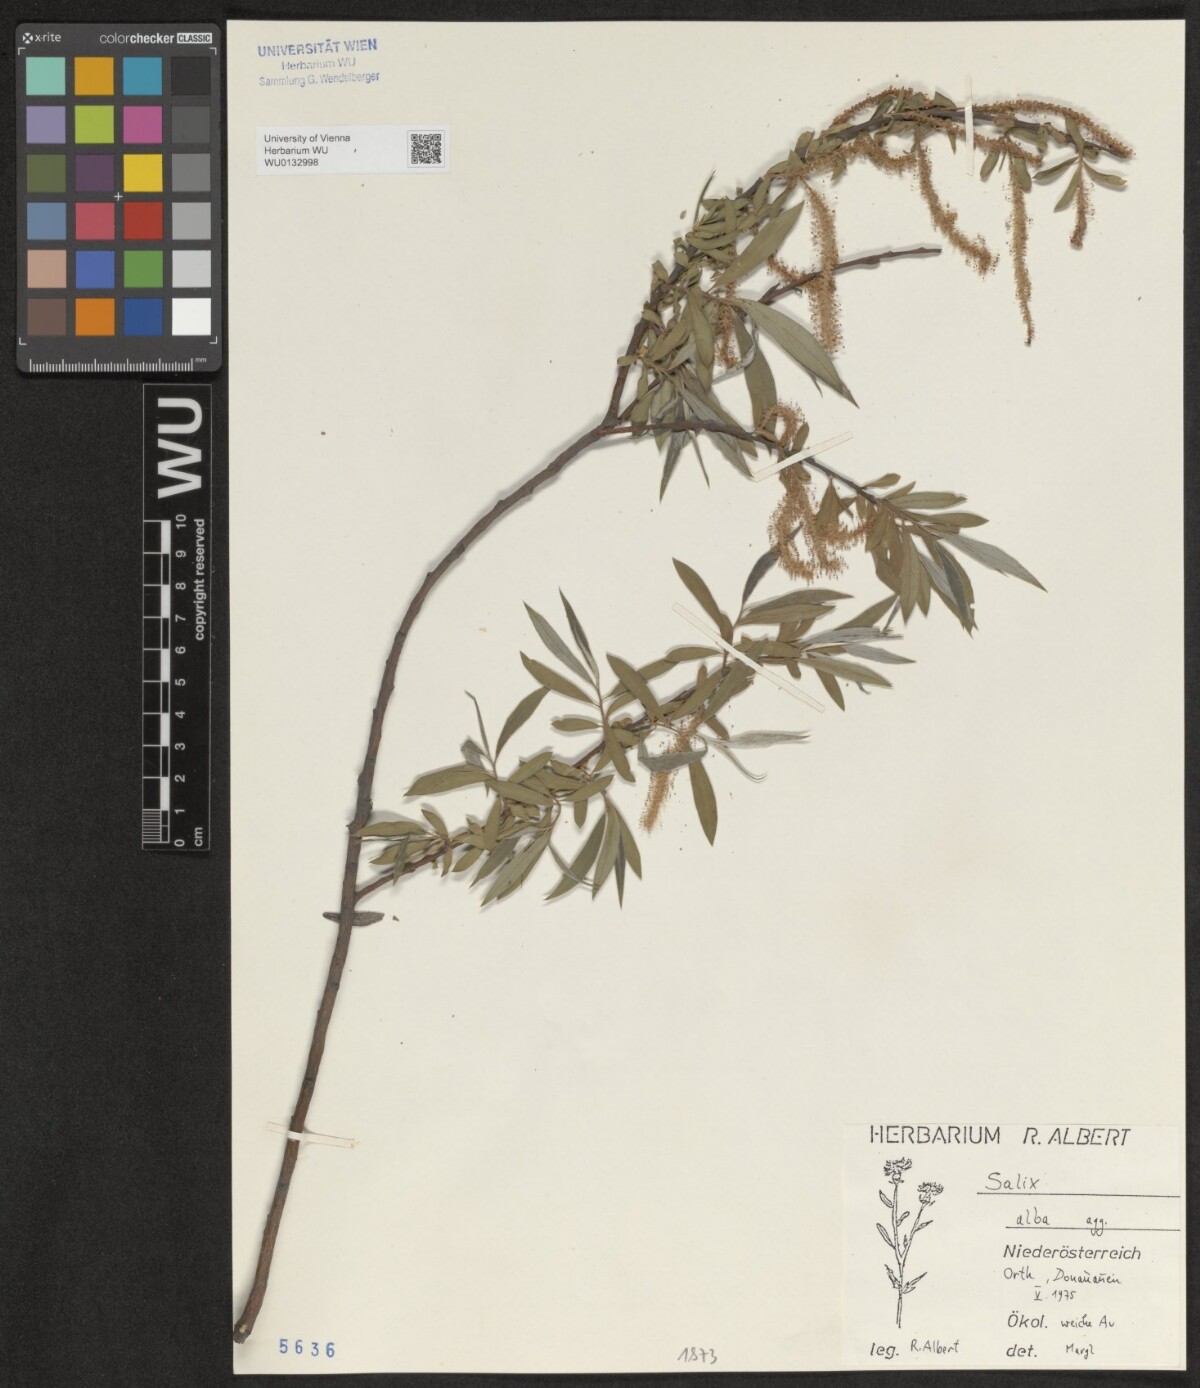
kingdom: Plantae
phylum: Tracheophyta
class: Magnoliopsida
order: Malpighiales
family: Salicaceae
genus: Salix
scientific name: Salix alba
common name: White willow
